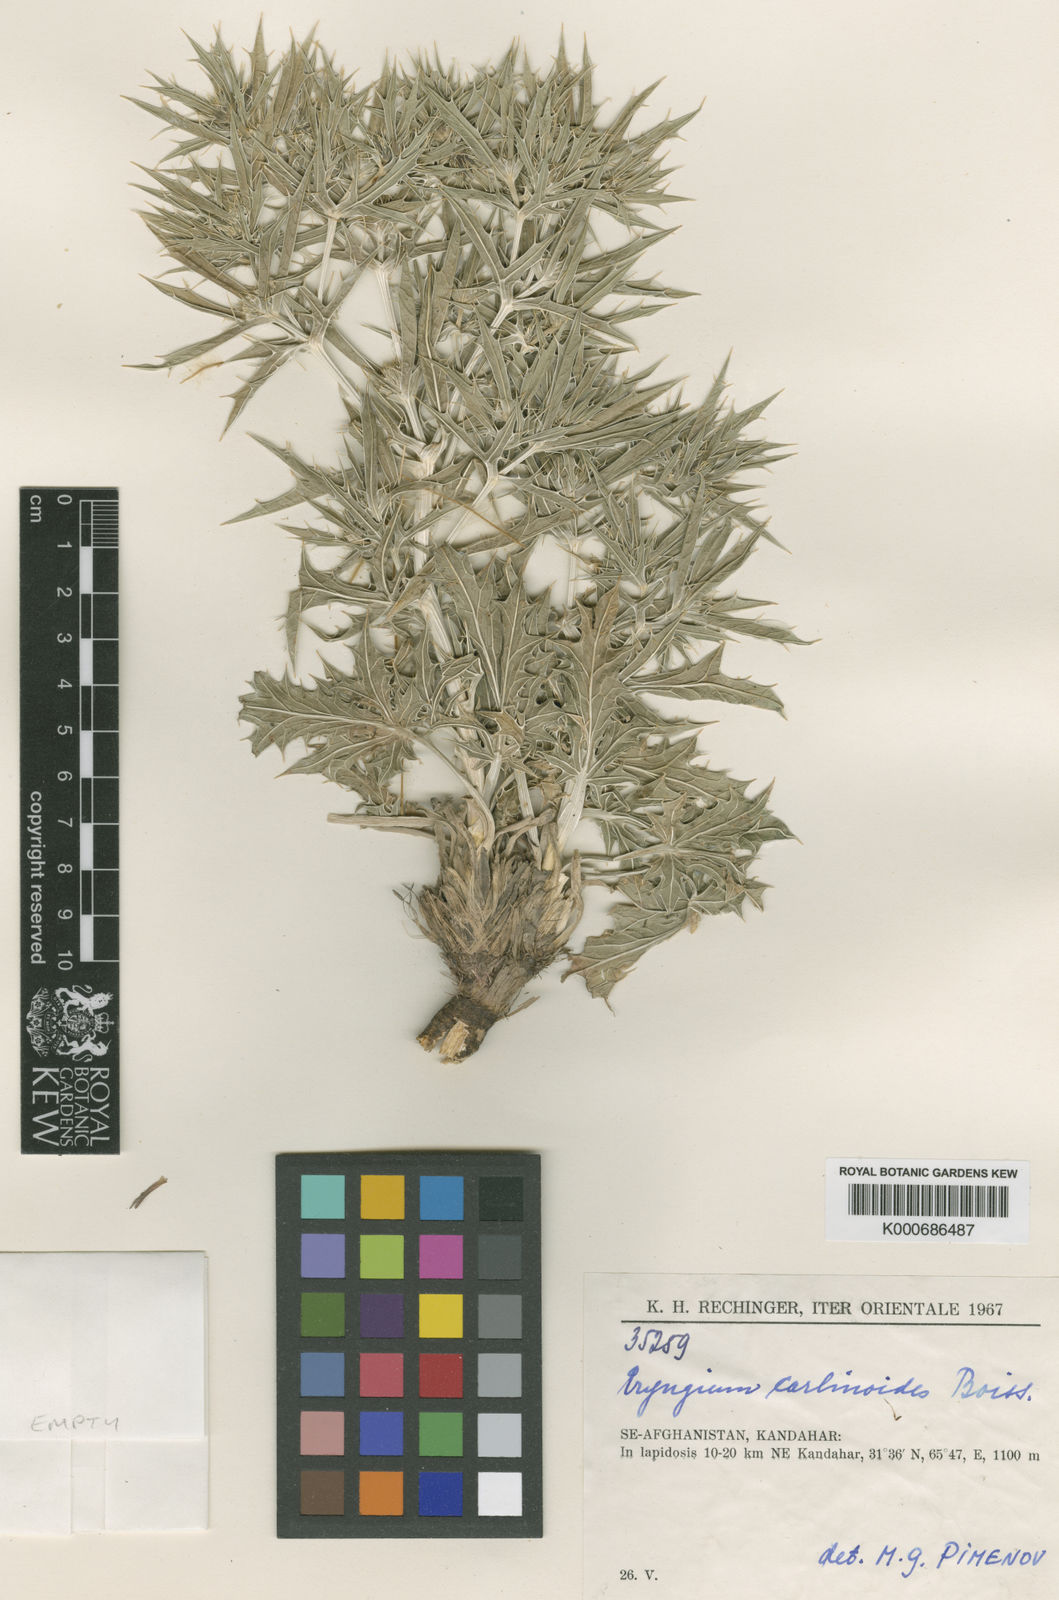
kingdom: Plantae
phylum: Tracheophyta
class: Magnoliopsida
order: Apiales
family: Apiaceae
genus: Eryngium
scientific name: Eryngium carlinoides
